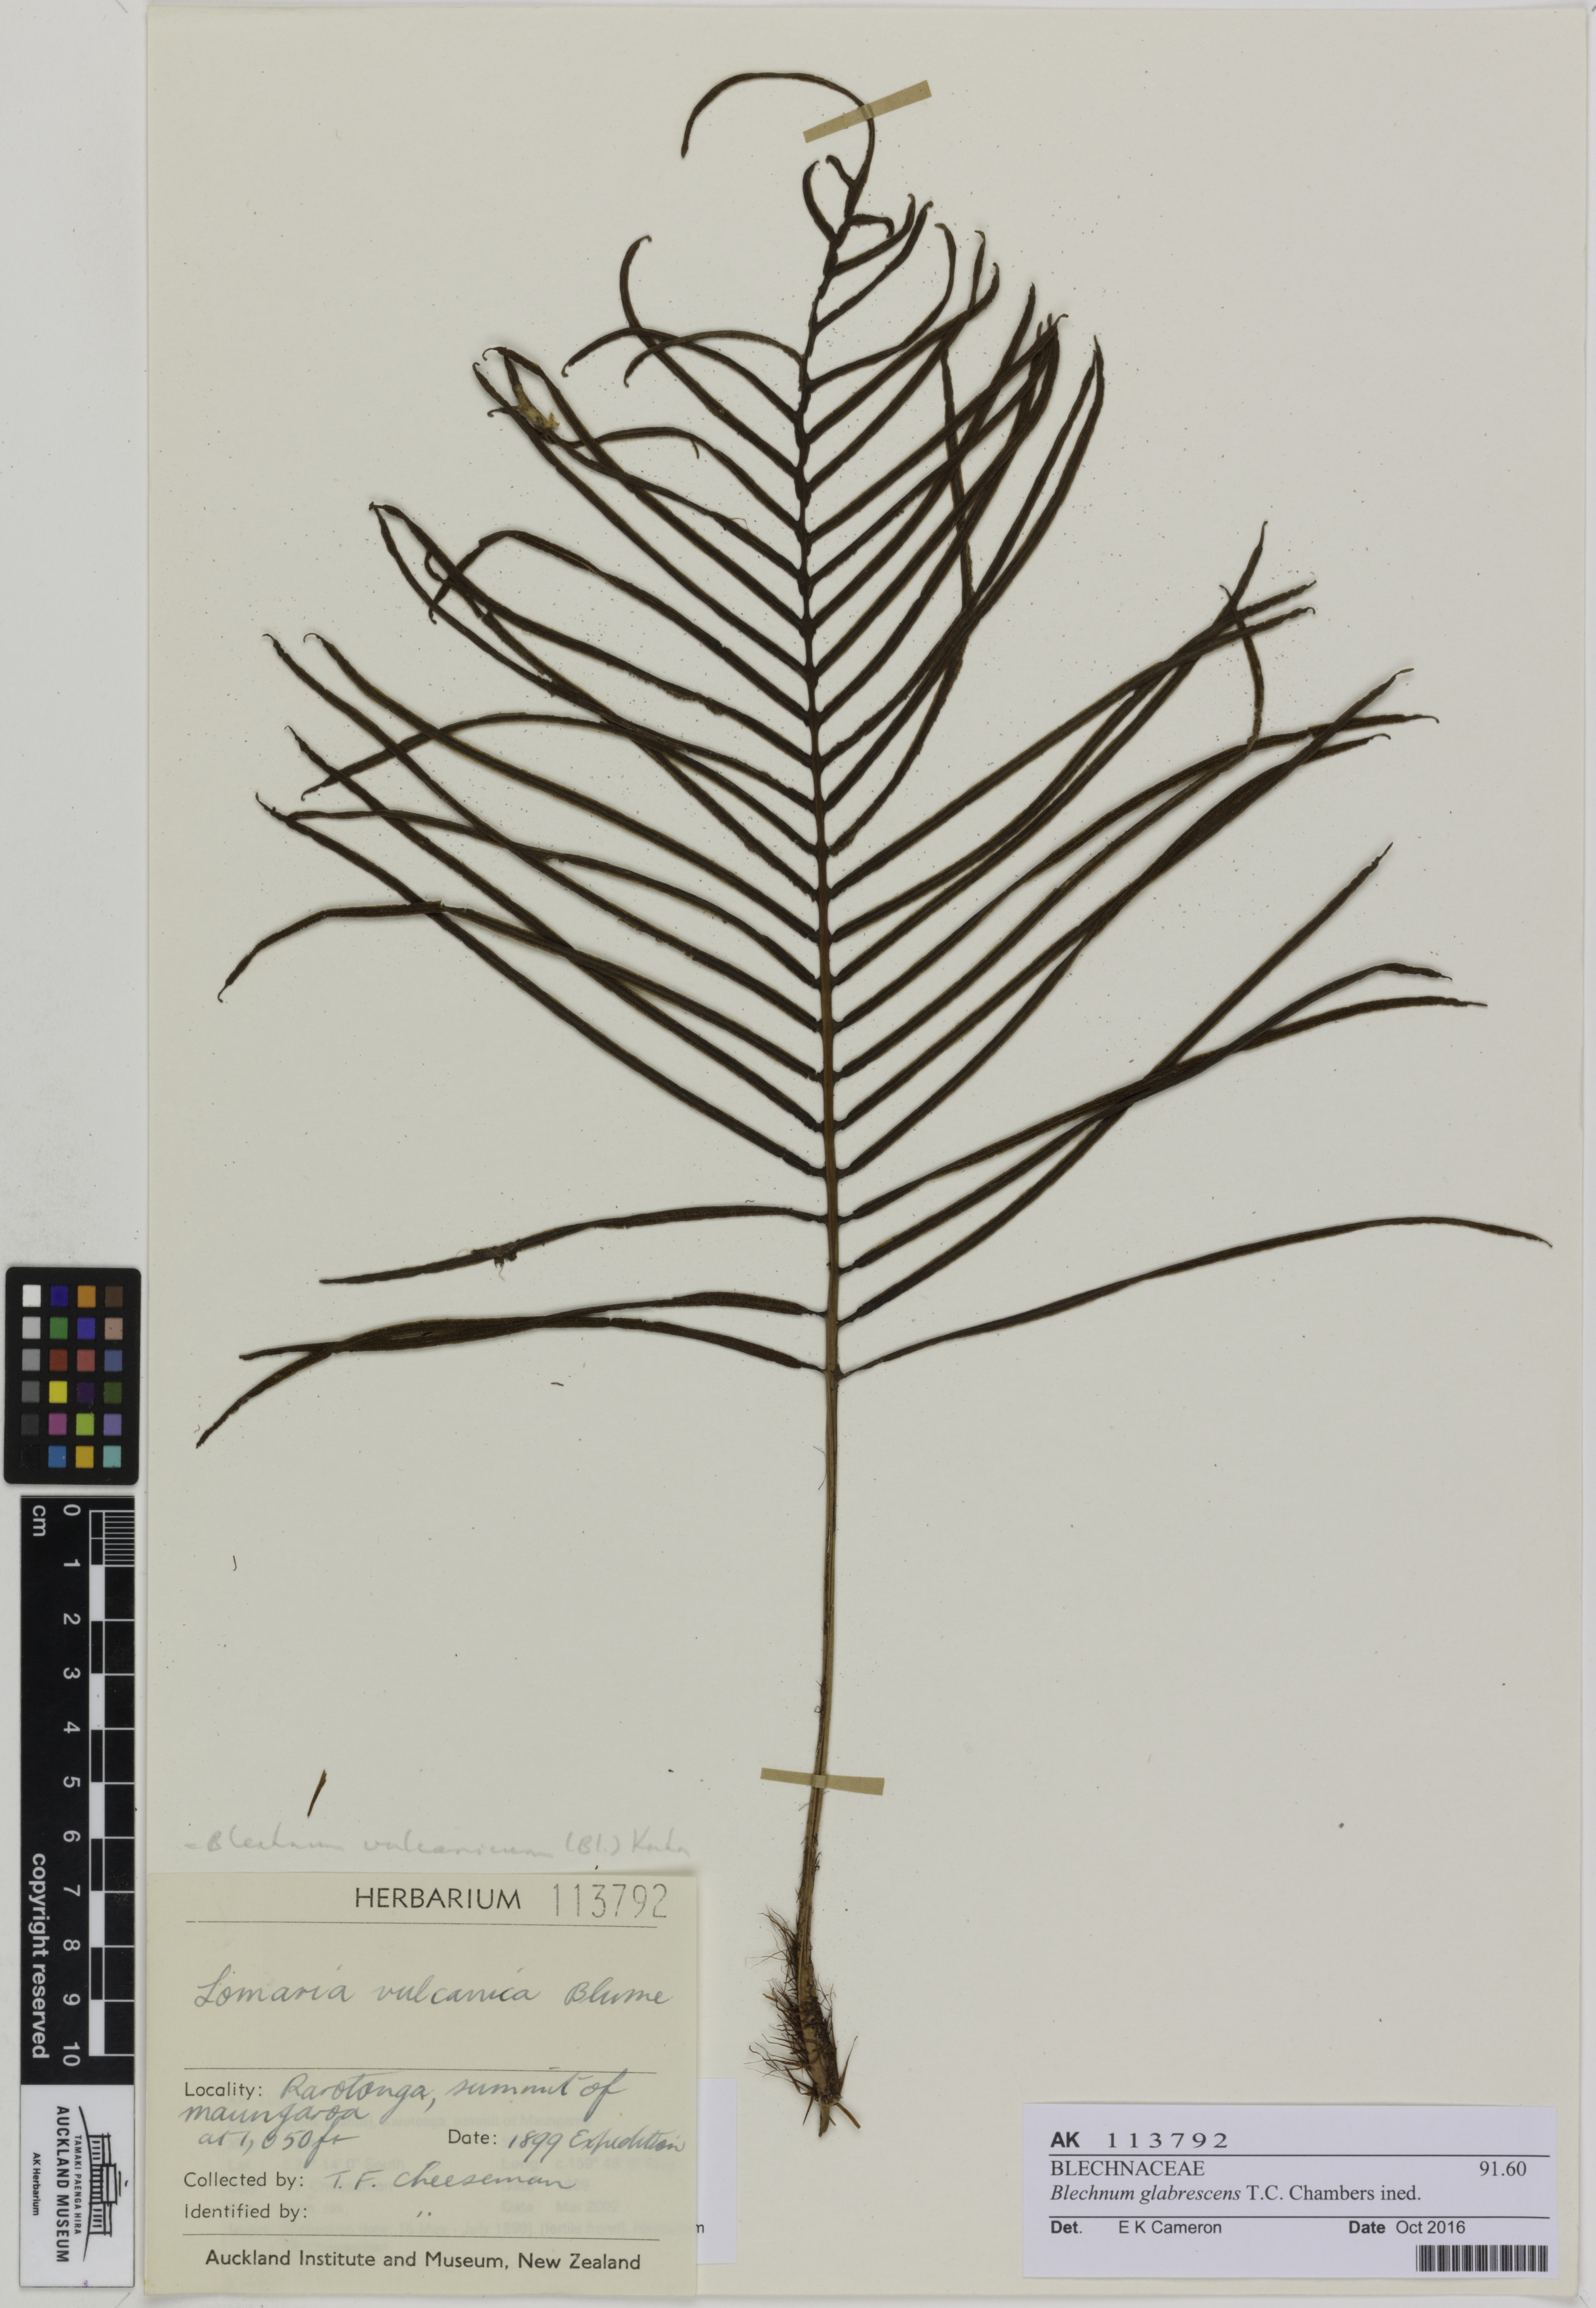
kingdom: Plantae
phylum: Tracheophyta
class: Polypodiopsida
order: Polypodiales
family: Blechnaceae
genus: Cranfillia
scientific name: Cranfillia glabrescens
